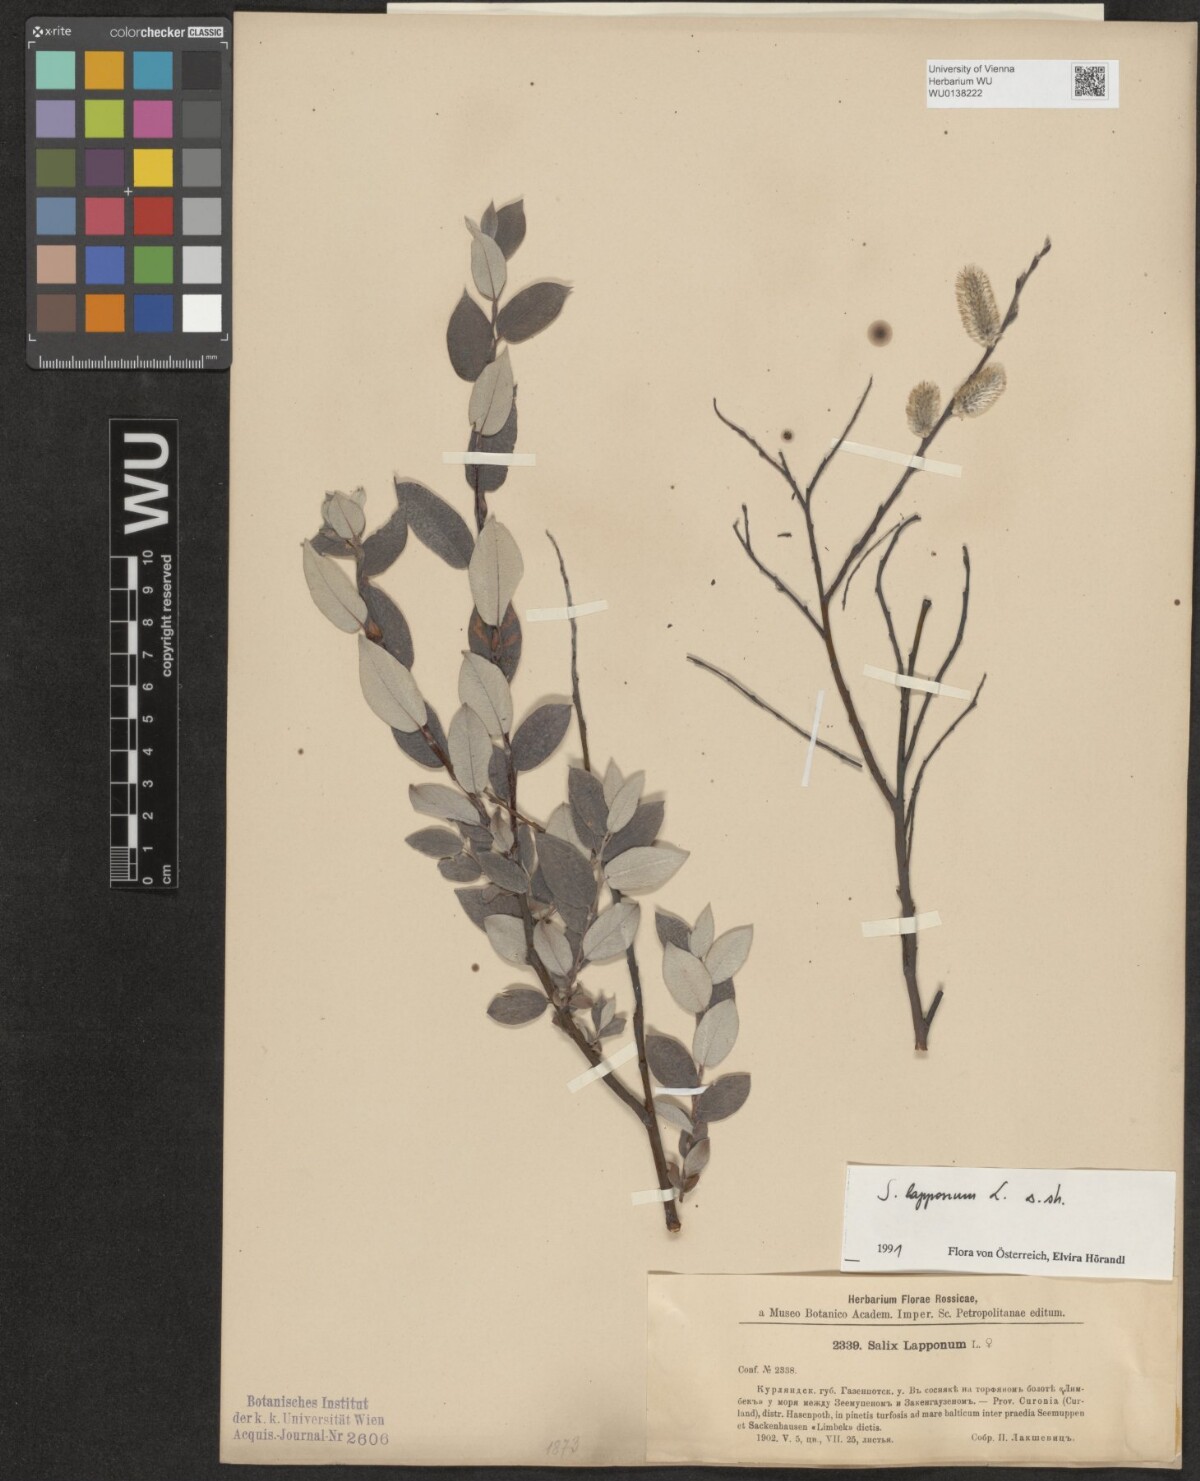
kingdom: Plantae
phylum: Tracheophyta
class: Magnoliopsida
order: Malpighiales
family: Salicaceae
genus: Salix
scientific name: Salix lapponum
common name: Downy willow
